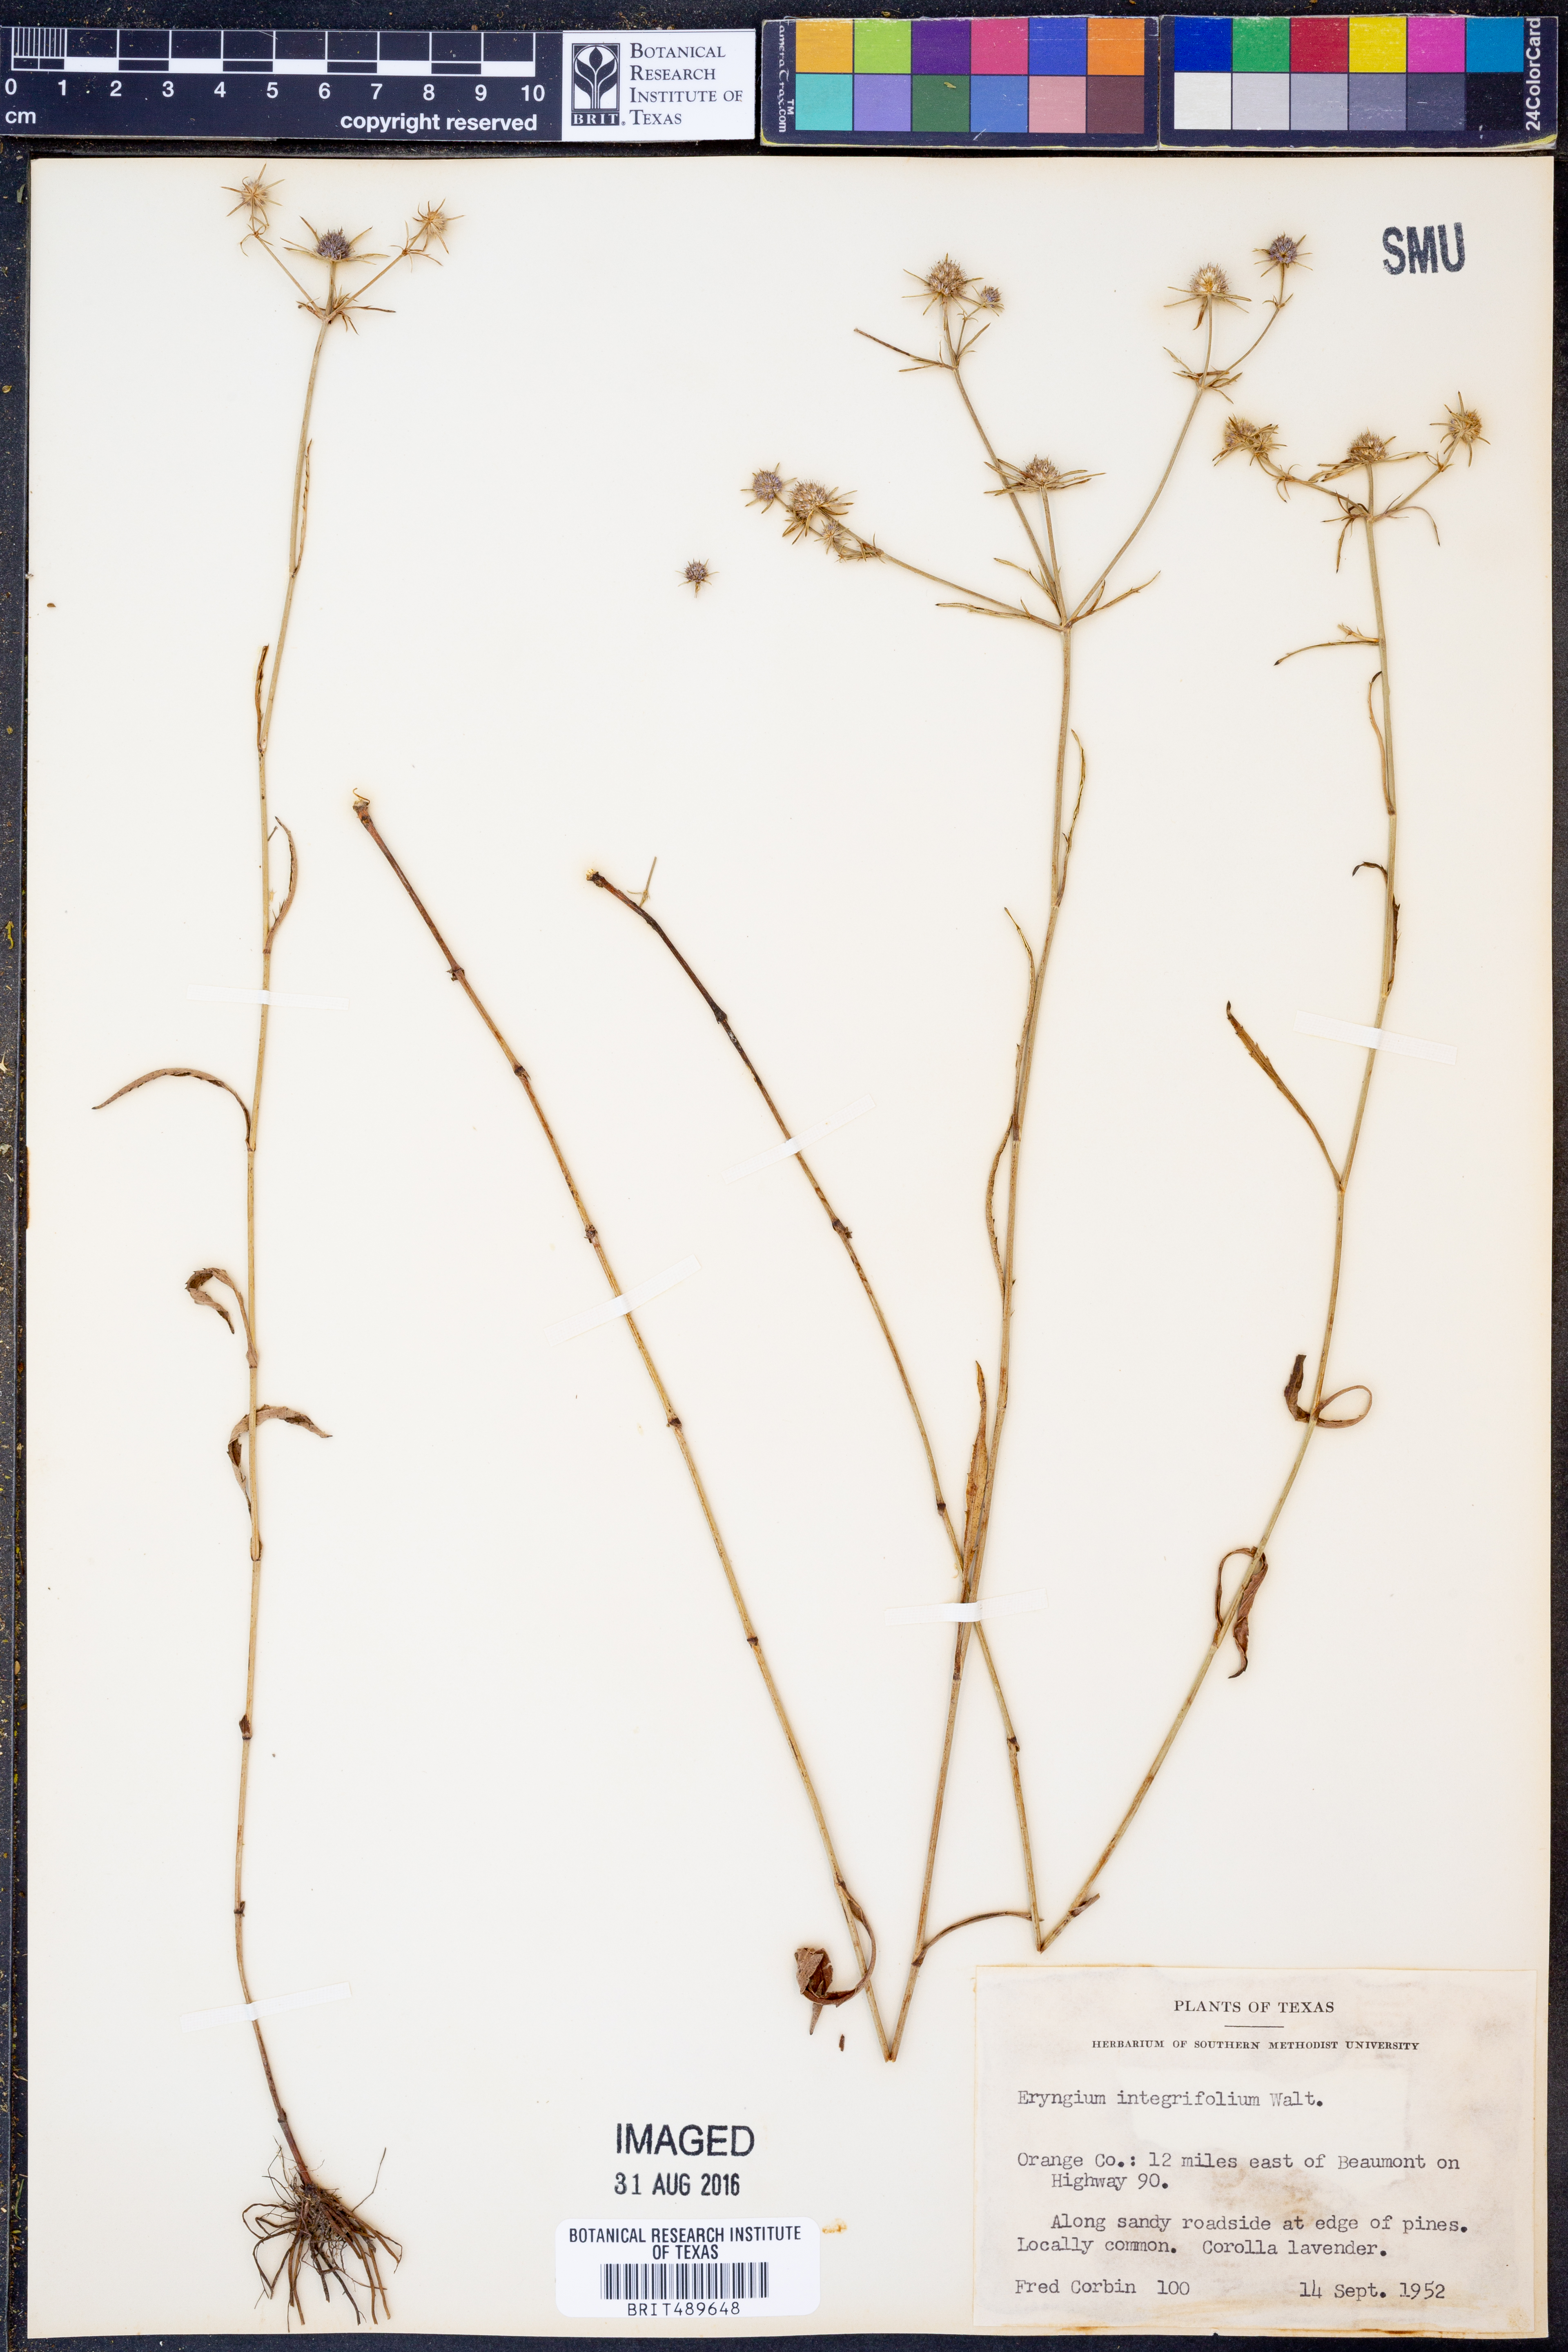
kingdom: Plantae
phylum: Tracheophyta
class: Magnoliopsida
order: Apiales
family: Apiaceae
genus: Eryngium
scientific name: Eryngium integrifolium
